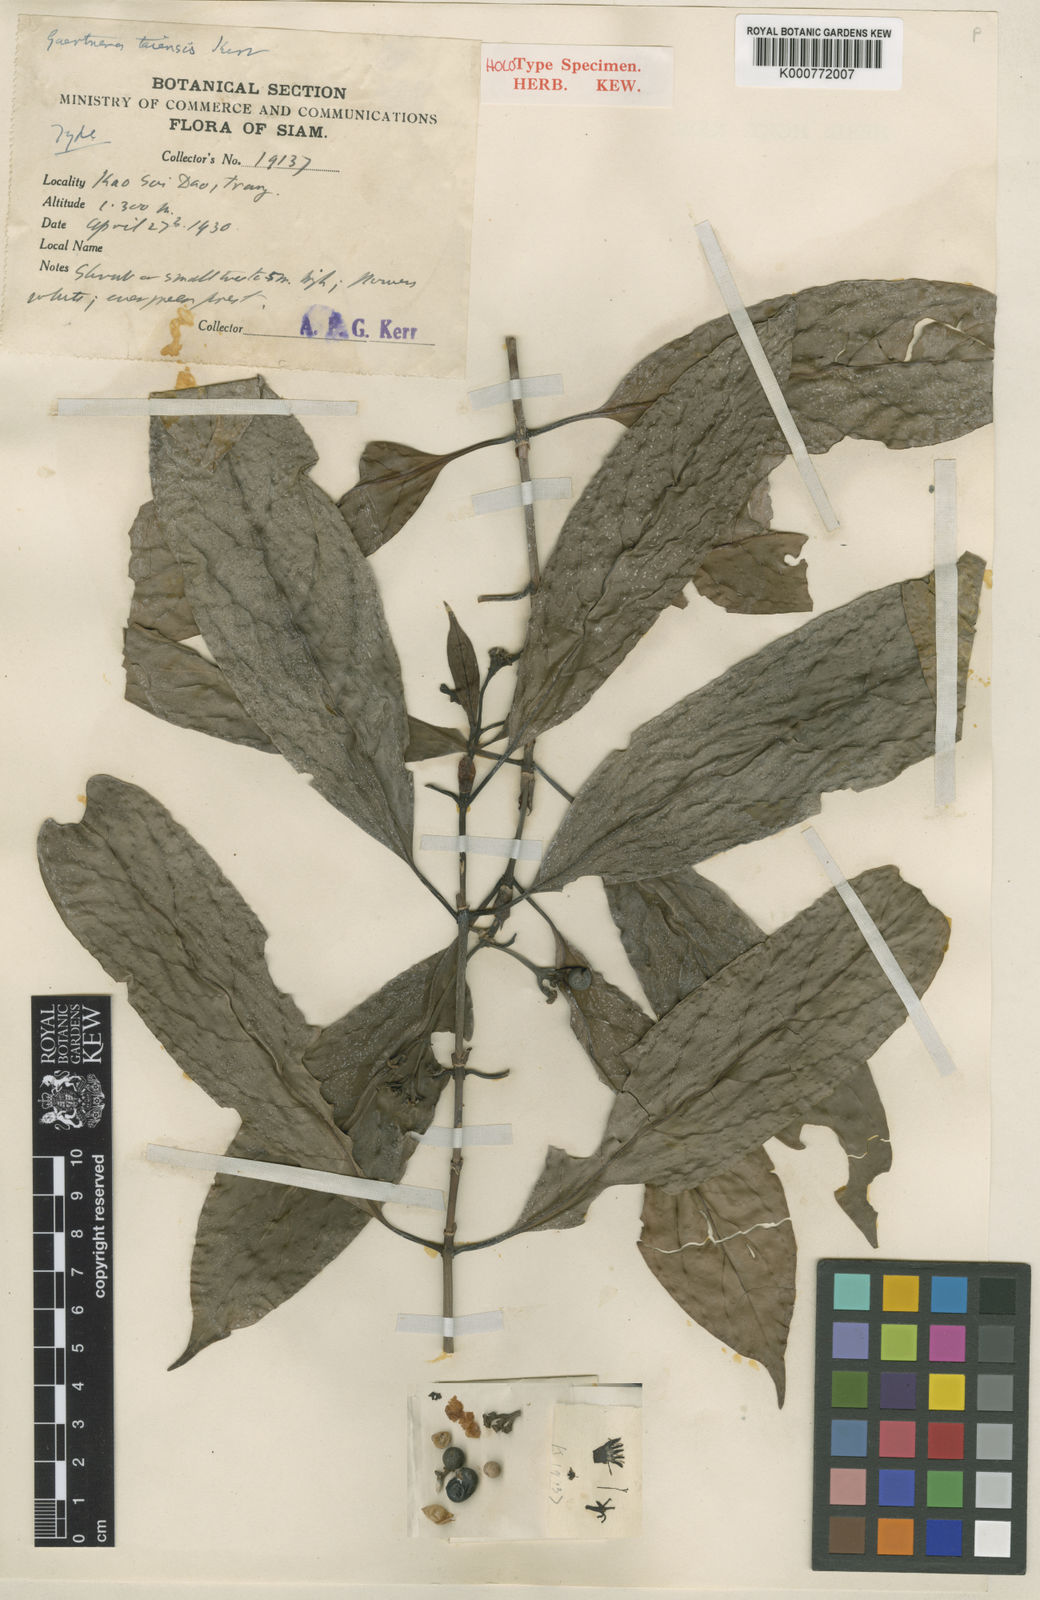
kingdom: Plantae
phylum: Tracheophyta
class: Magnoliopsida
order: Gentianales
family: Rubiaceae
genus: Gaertnera
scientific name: Gaertnera junghuhniana
